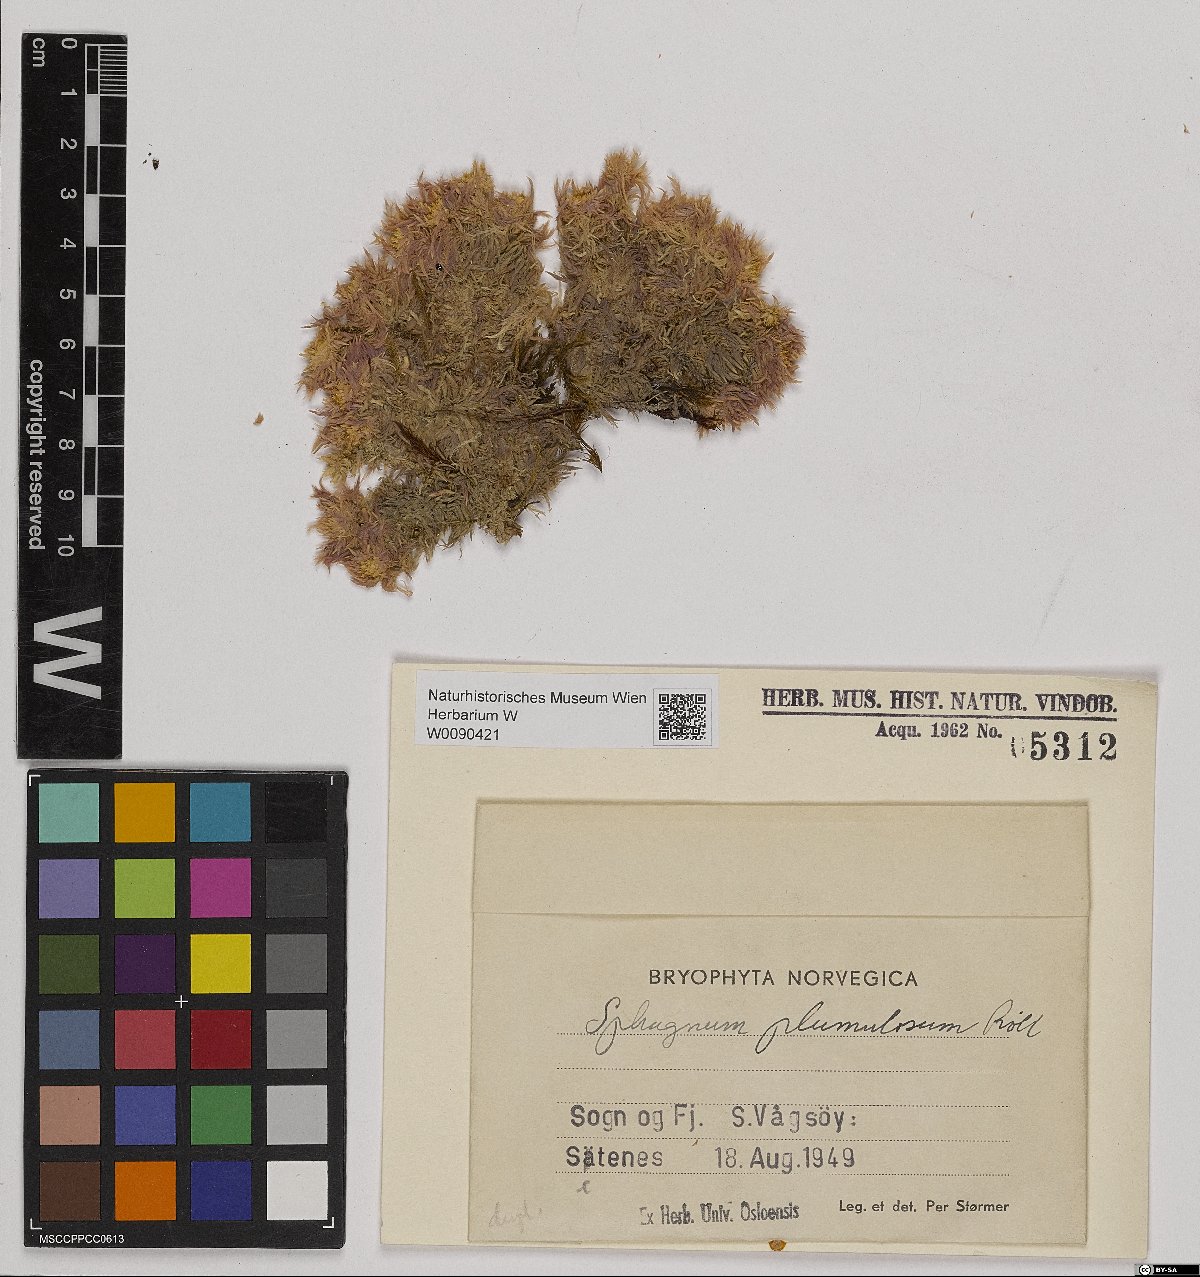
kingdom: Plantae
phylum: Bryophyta
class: Sphagnopsida
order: Sphagnales
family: Sphagnaceae
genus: Sphagnum
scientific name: Sphagnum subnitens
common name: Lustrous bog-moss
